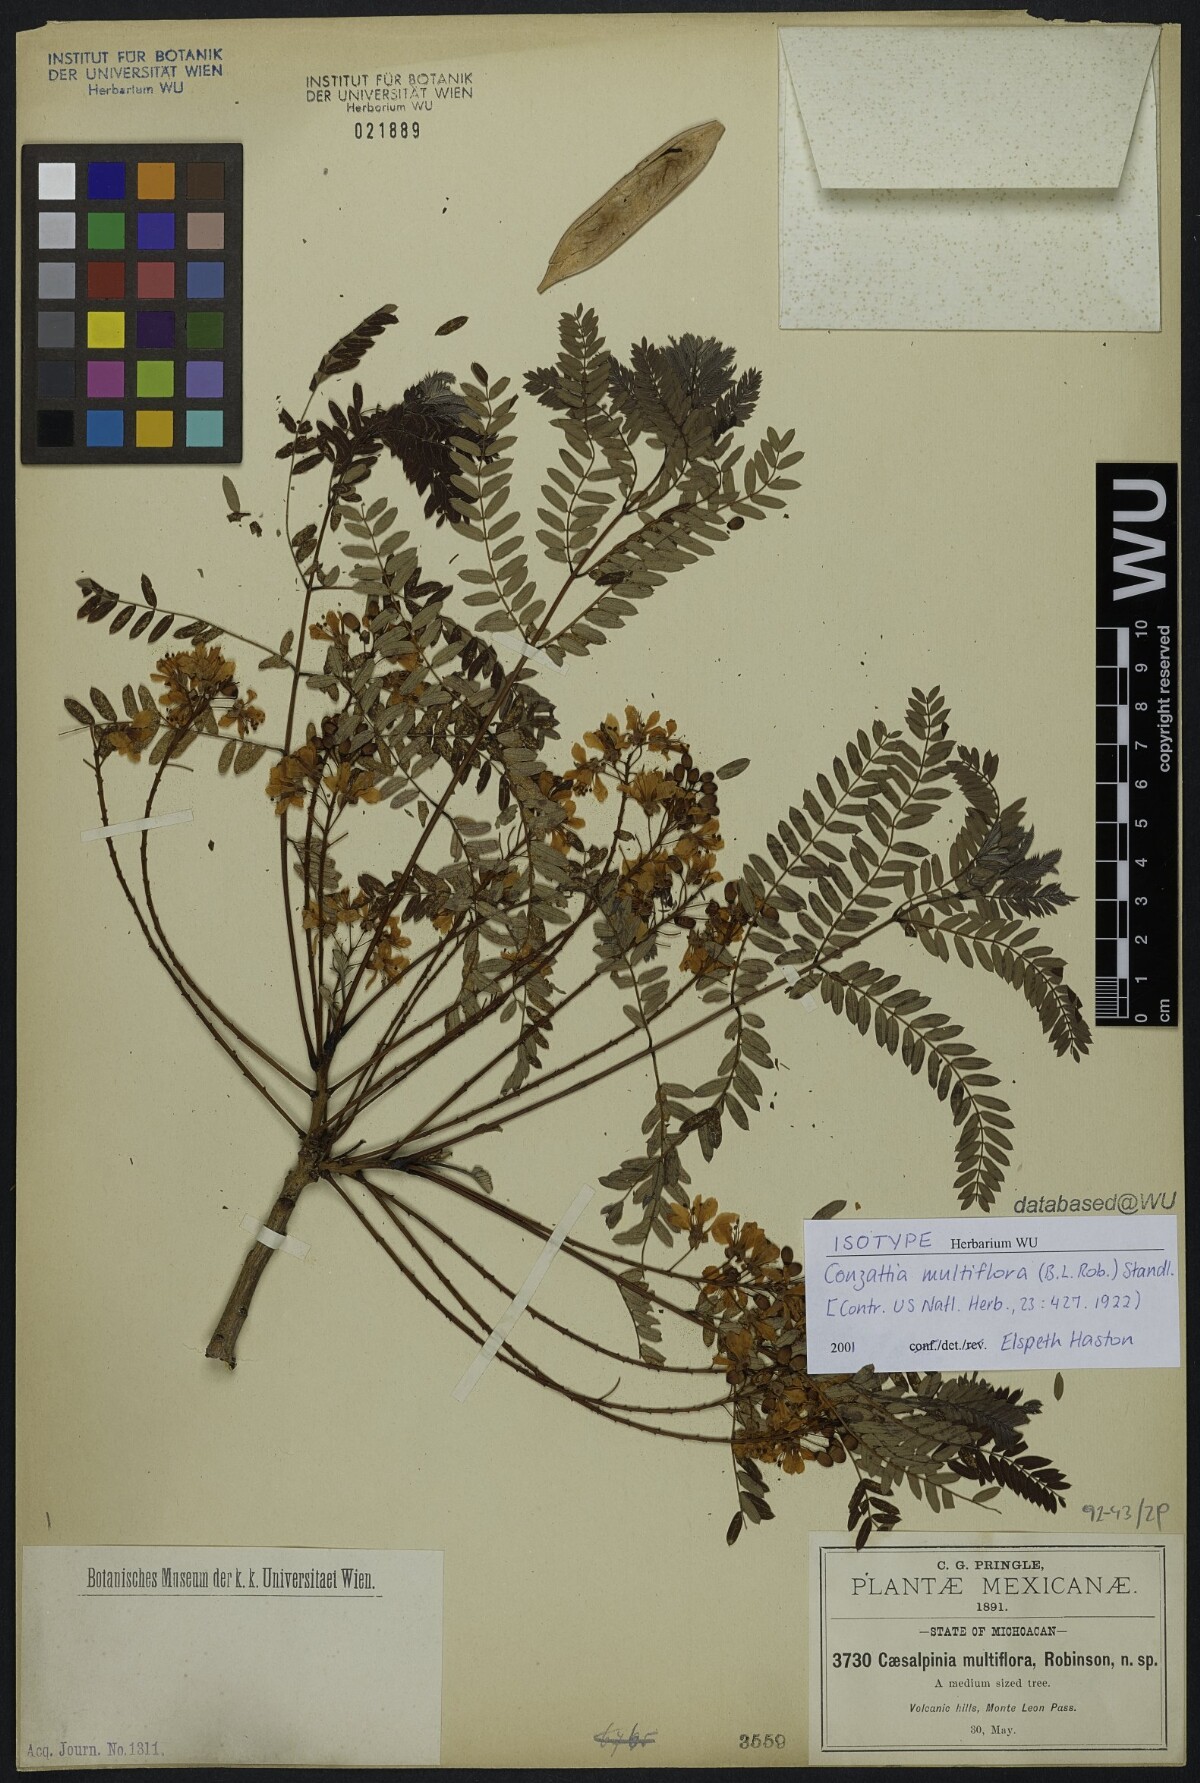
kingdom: Plantae
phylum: Tracheophyta
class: Magnoliopsida
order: Fabales
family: Fabaceae
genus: Conzattia
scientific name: Conzattia multiflora
